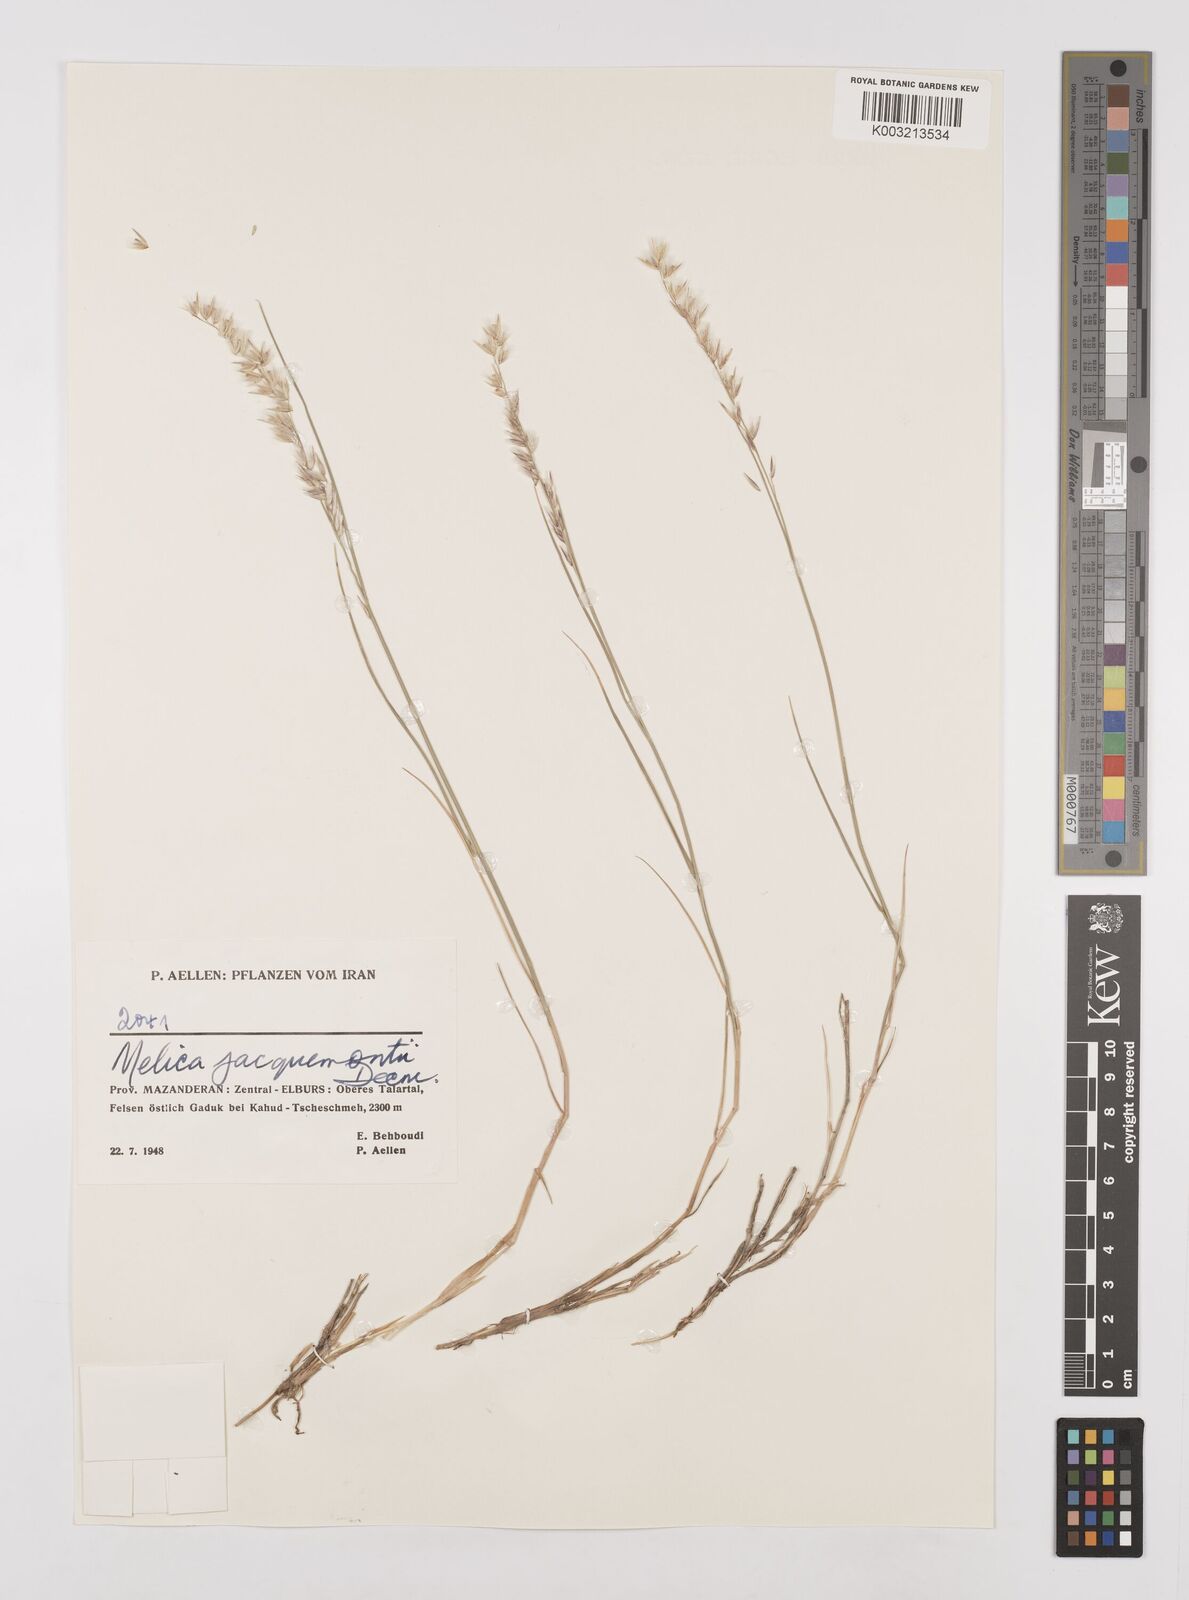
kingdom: Plantae
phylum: Tracheophyta
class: Liliopsida
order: Poales
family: Poaceae
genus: Melica
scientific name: Melica persica
